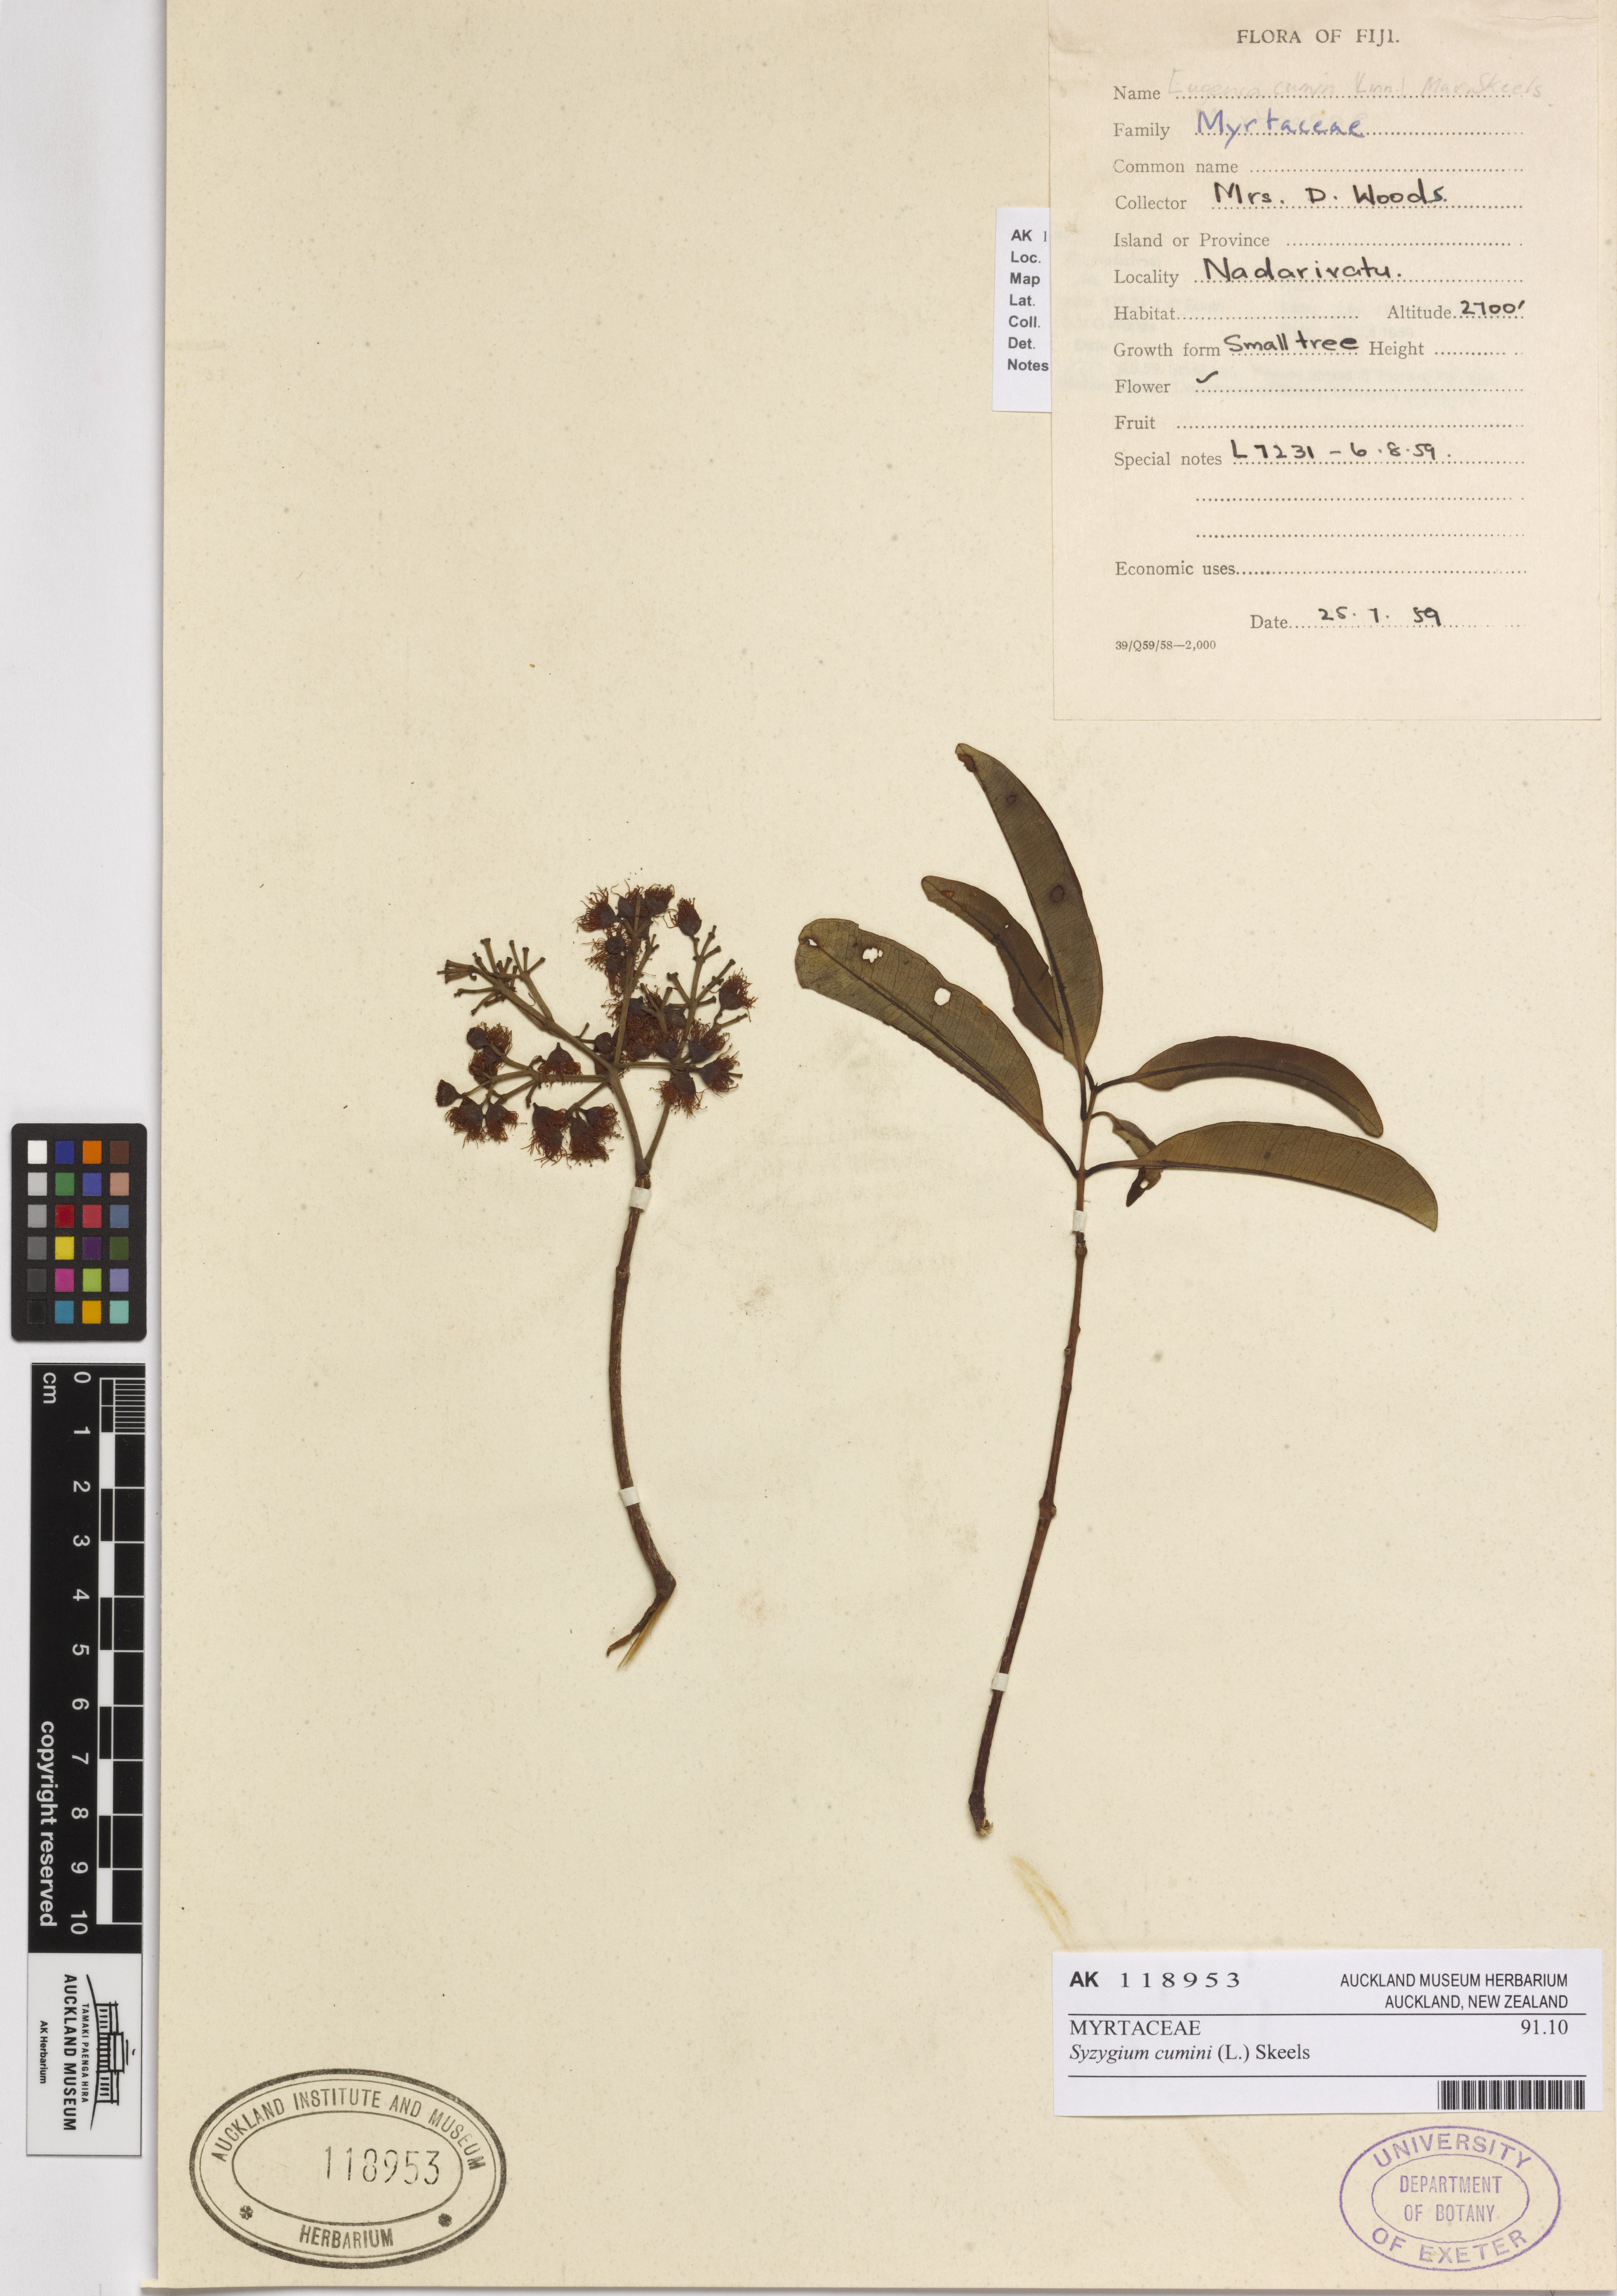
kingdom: Plantae
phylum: Tracheophyta
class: Magnoliopsida
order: Myrtales
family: Myrtaceae
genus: Syzygium
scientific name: Syzygium cumini
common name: Java plum
